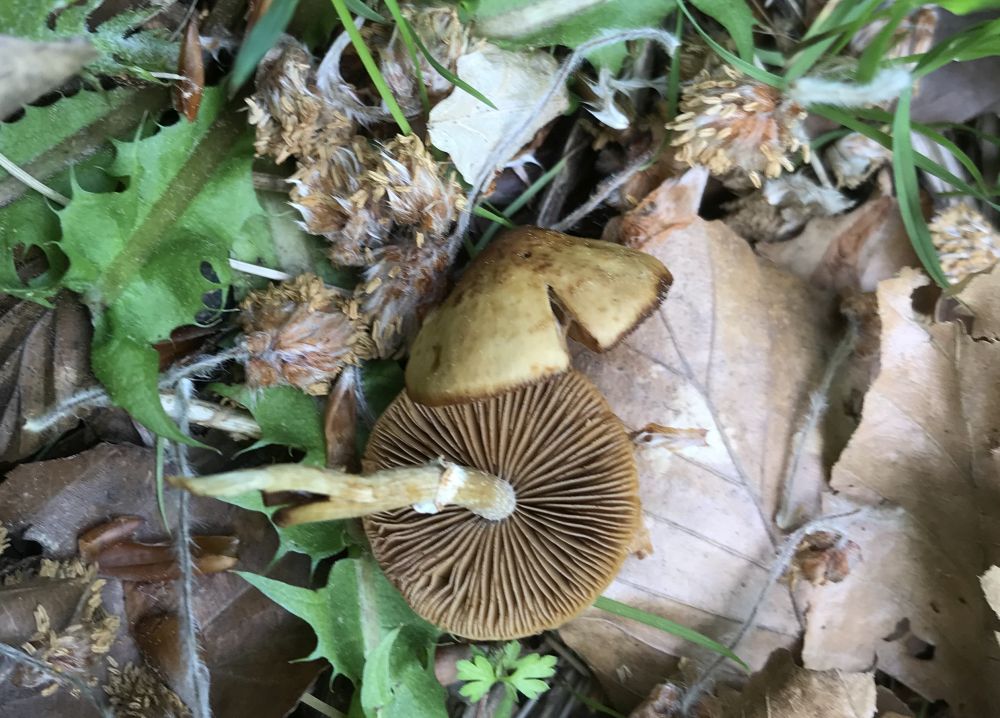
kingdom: Fungi
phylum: Basidiomycota
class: Agaricomycetes
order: Agaricales
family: Strophariaceae
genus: Agrocybe
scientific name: Agrocybe
